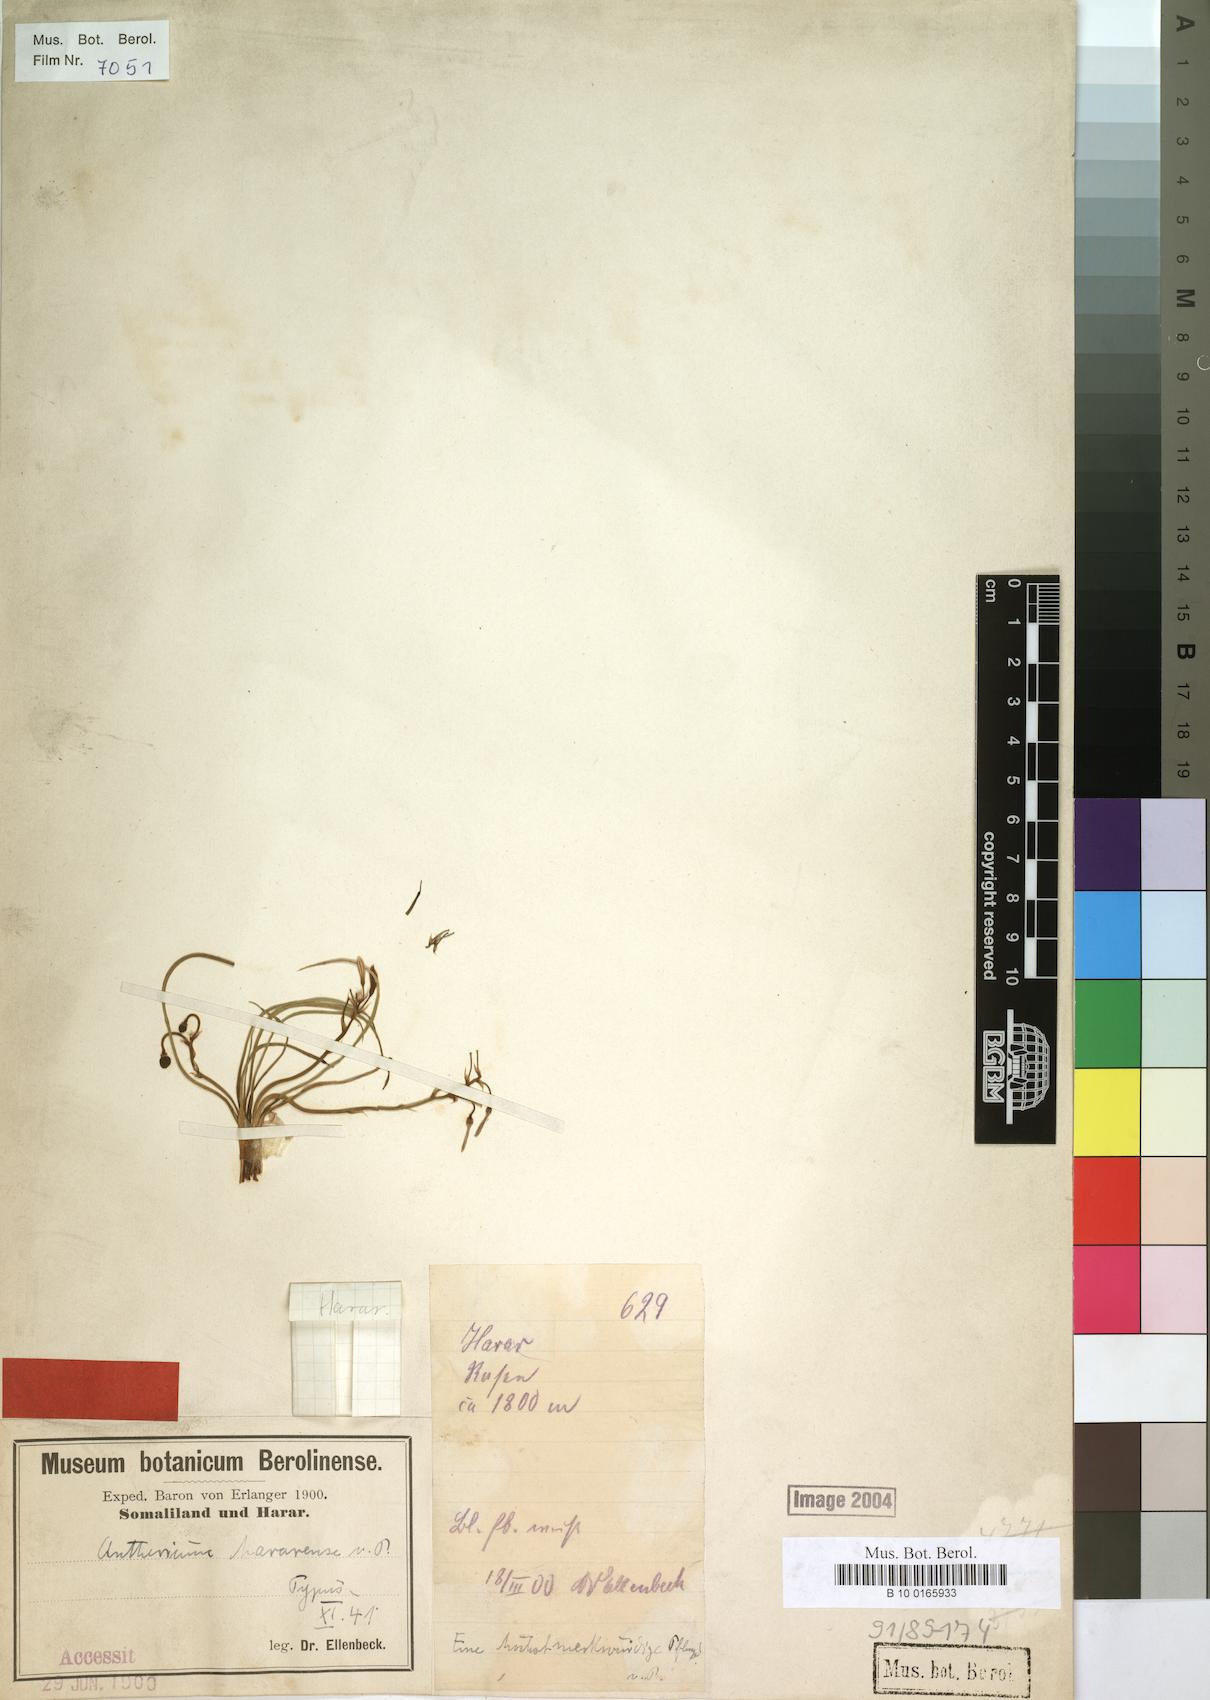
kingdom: Plantae
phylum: Tracheophyta
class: Liliopsida
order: Asparagales
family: Asphodelaceae
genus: Trachyandra
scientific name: Trachyandra saltii
